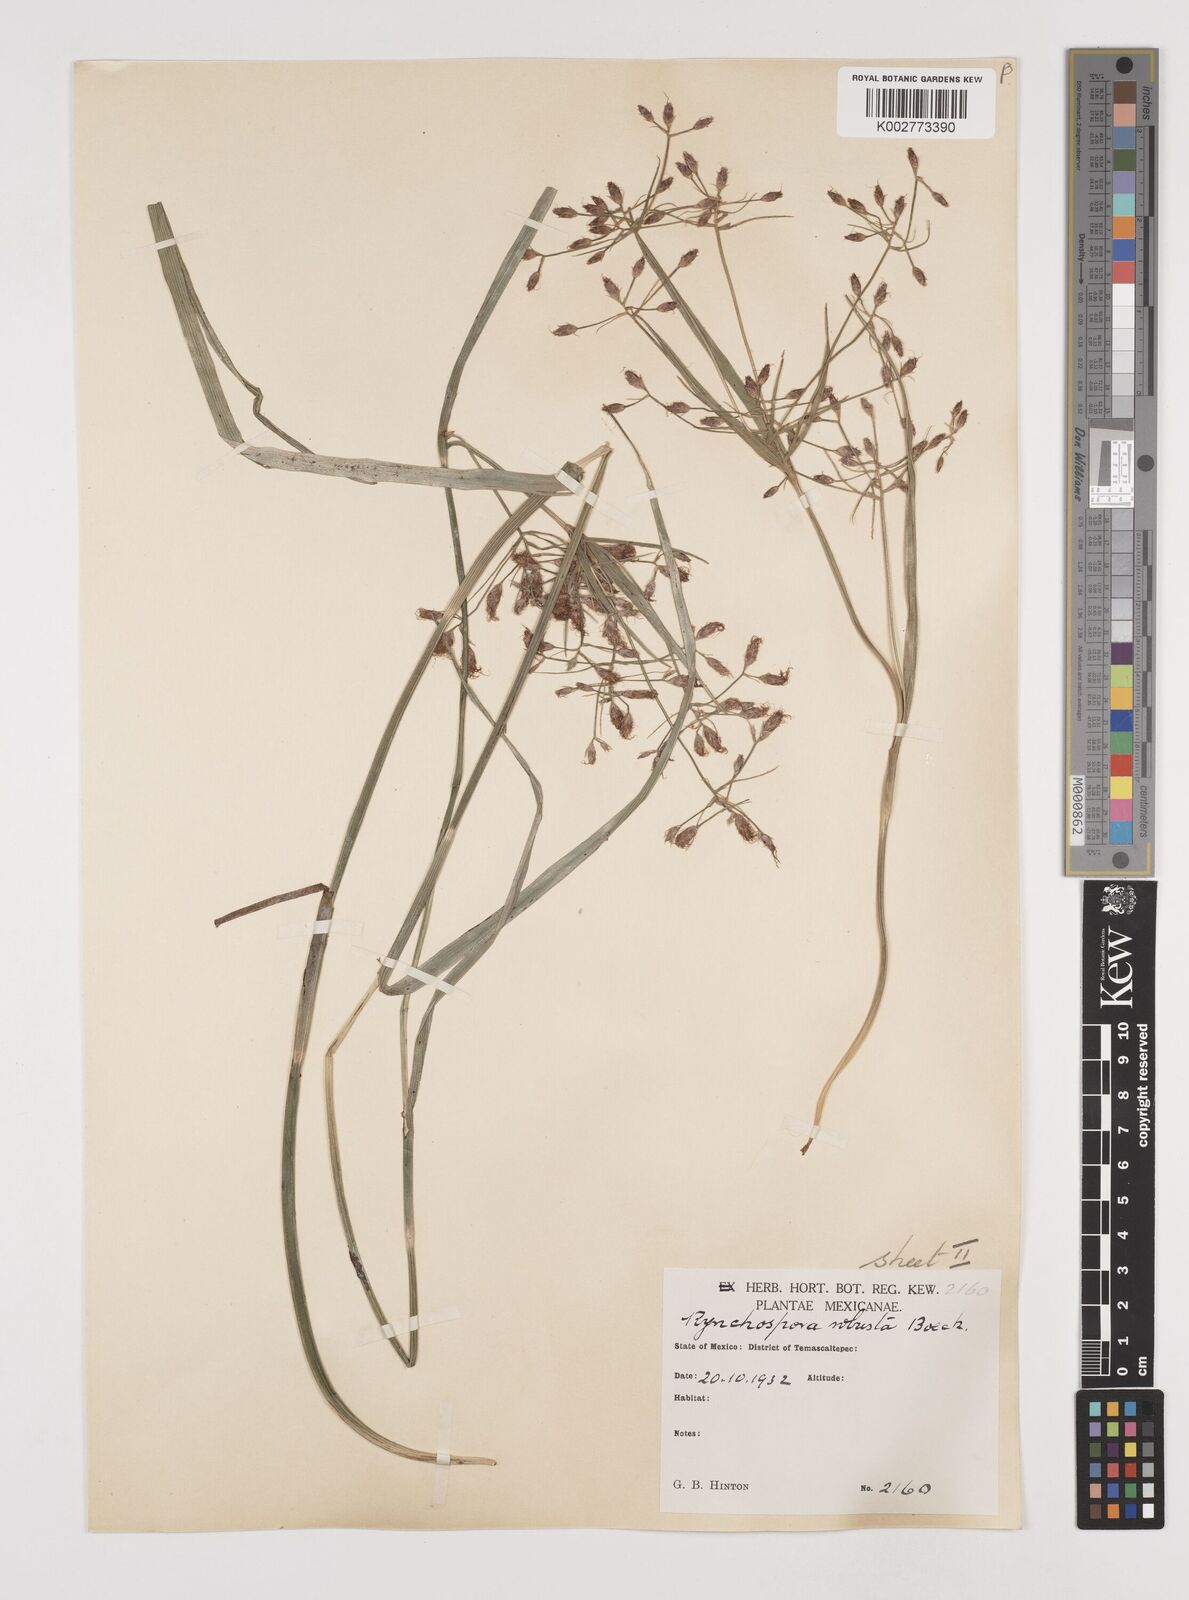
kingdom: Plantae
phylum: Tracheophyta
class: Liliopsida
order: Poales
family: Cyperaceae
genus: Rhynchospora
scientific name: Rhynchospora robusta
